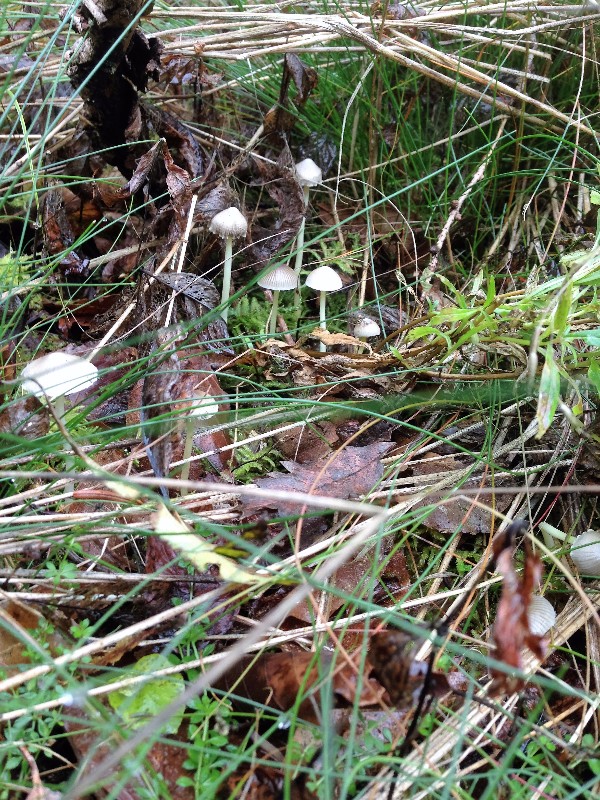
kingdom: Fungi
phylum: Basidiomycota
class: Agaricomycetes
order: Agaricales
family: Mycenaceae
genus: Mycena
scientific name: Mycena epipterygia
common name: gulstokket huesvamp
